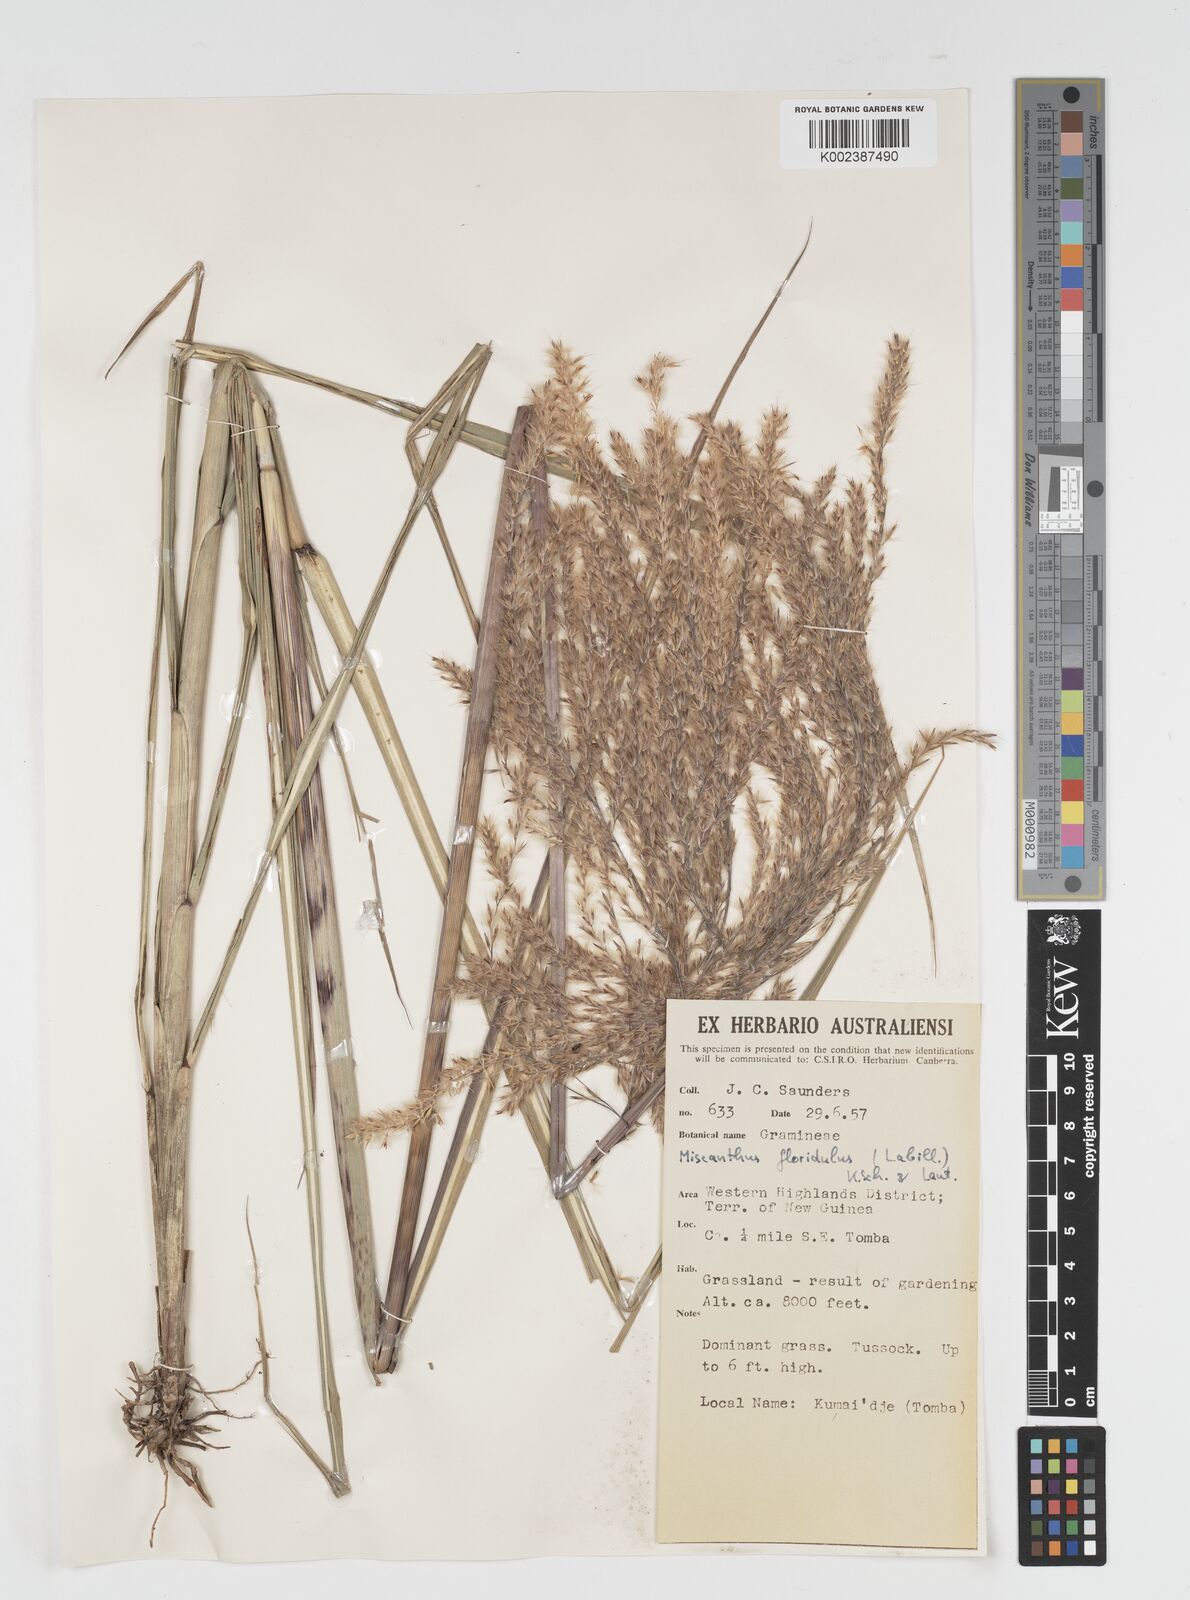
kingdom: Plantae
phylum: Tracheophyta
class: Liliopsida
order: Poales
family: Poaceae
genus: Miscanthus
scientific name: Miscanthus floridulus
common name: Pacific island silvergrass
